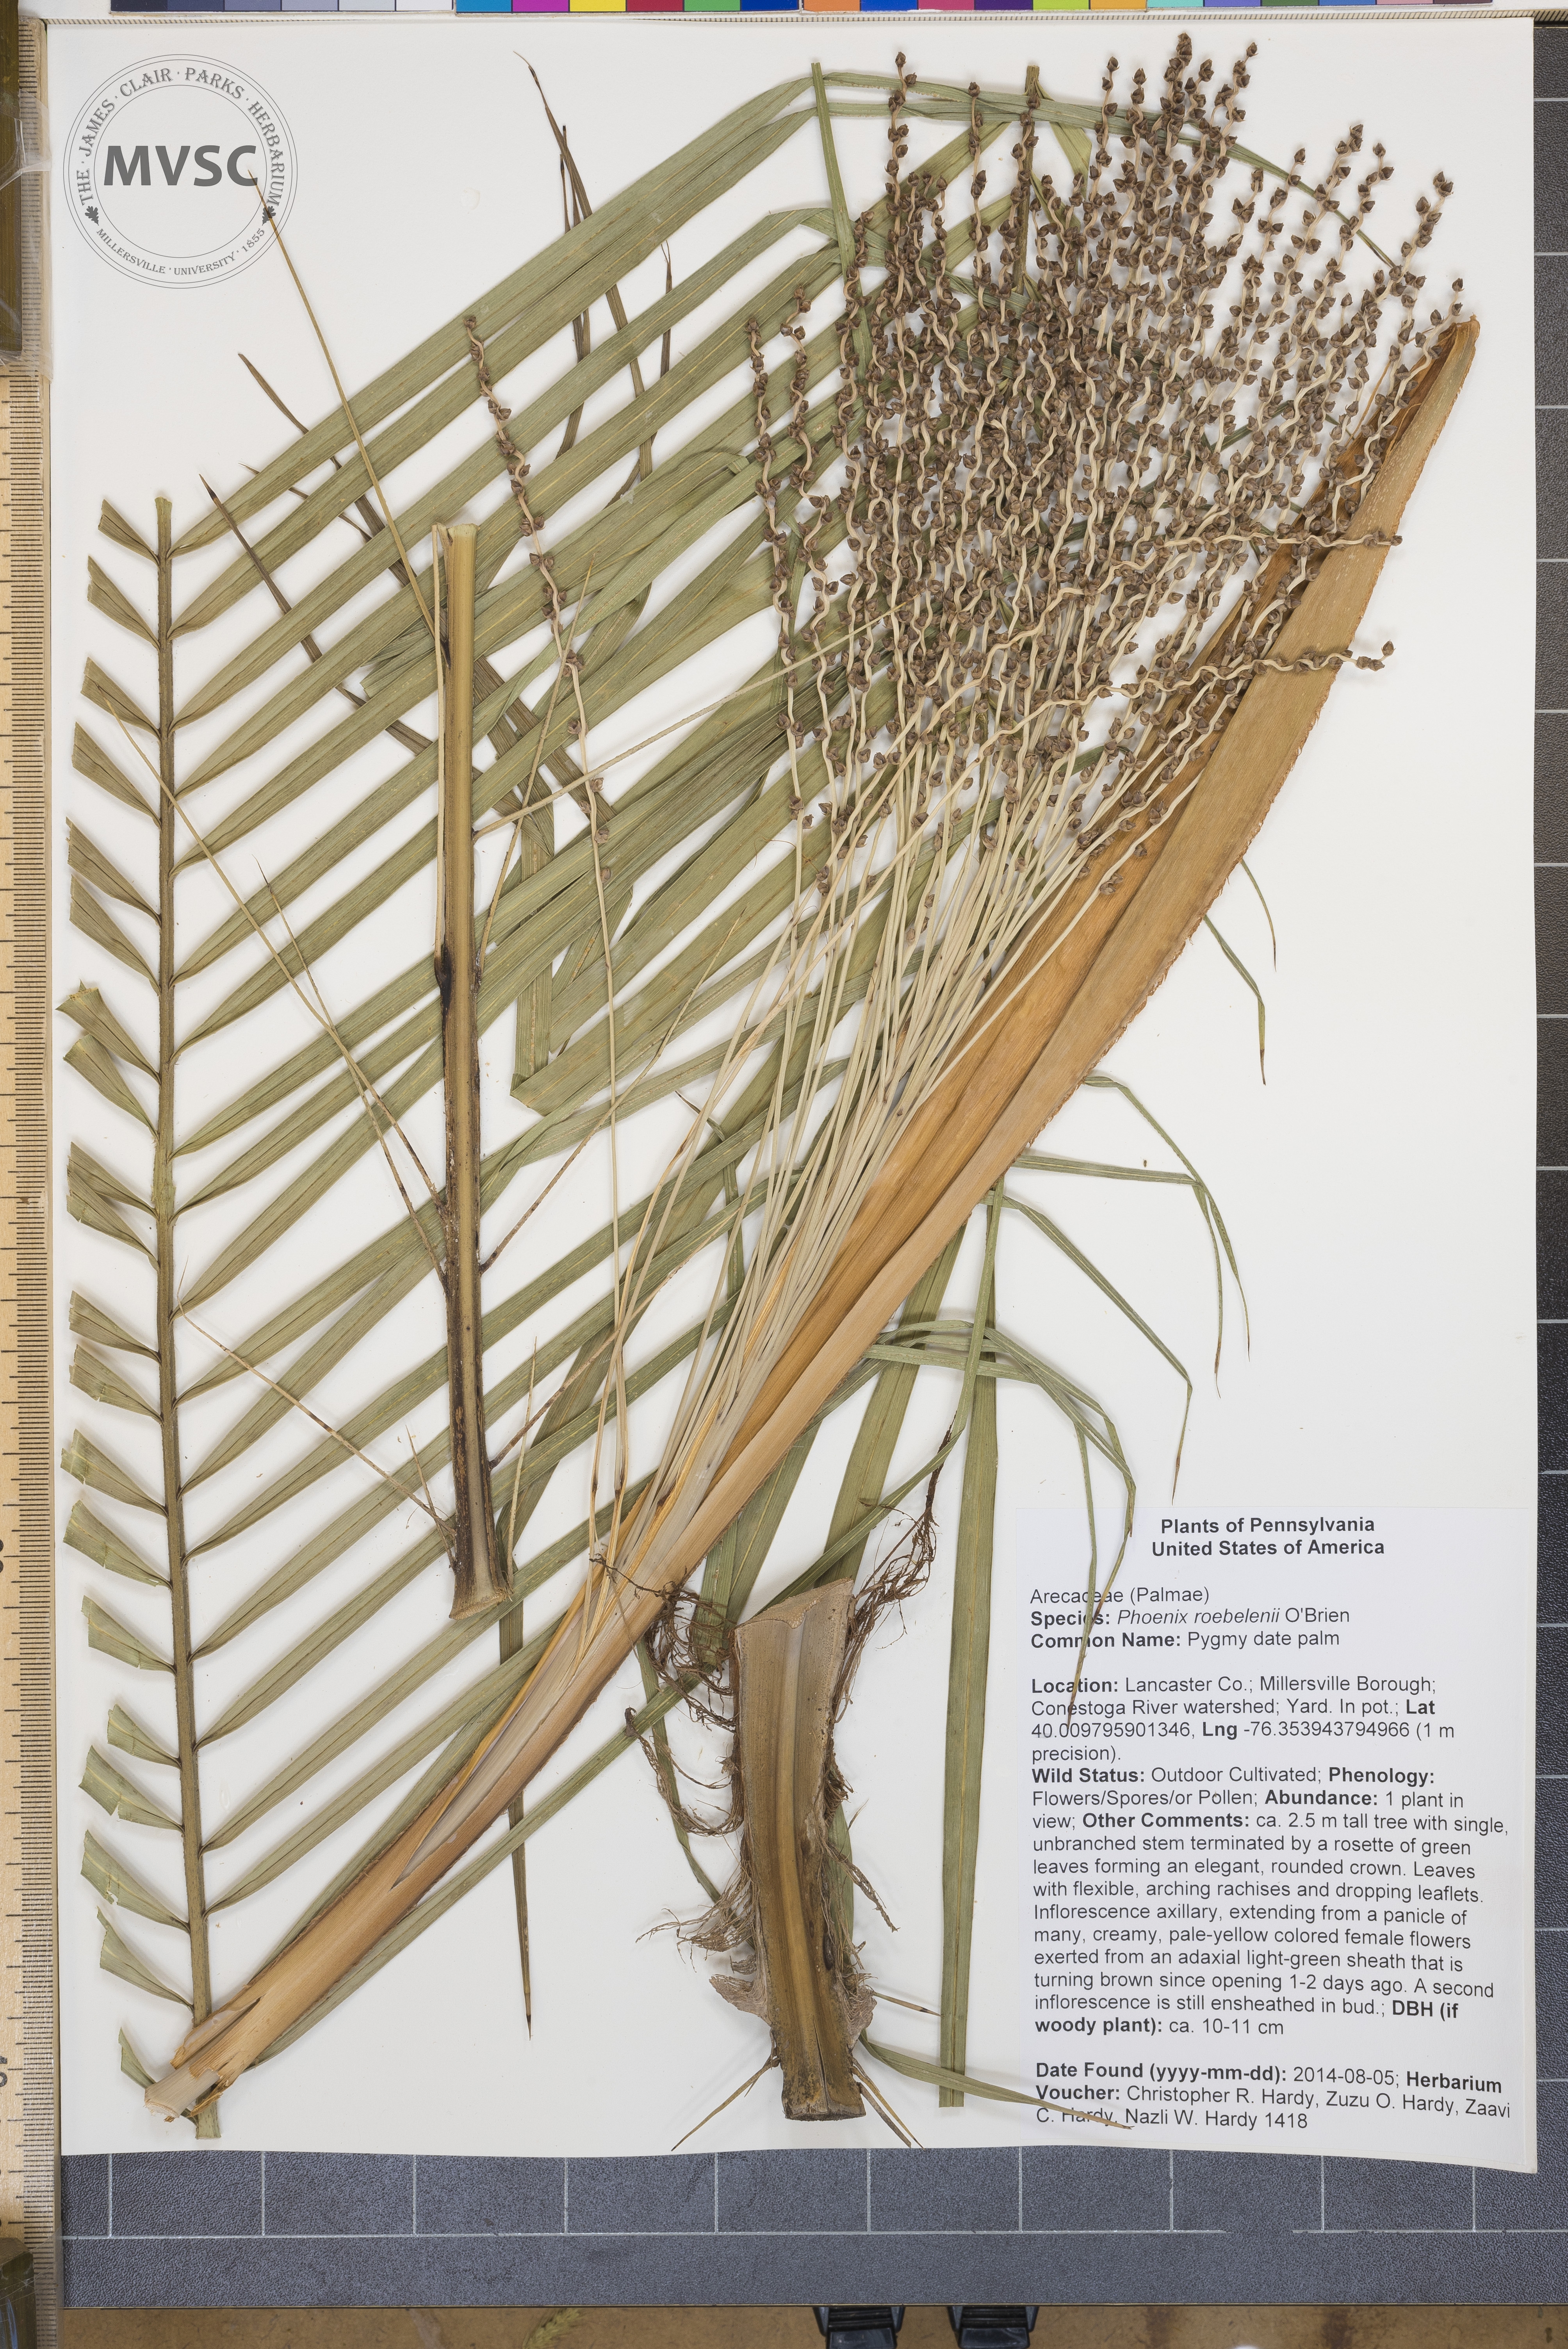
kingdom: Plantae
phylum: Tracheophyta
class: Liliopsida
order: Arecales
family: Arecaceae
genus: Phoenix
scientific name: Phoenix roebelenii
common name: Pygmy date palm
